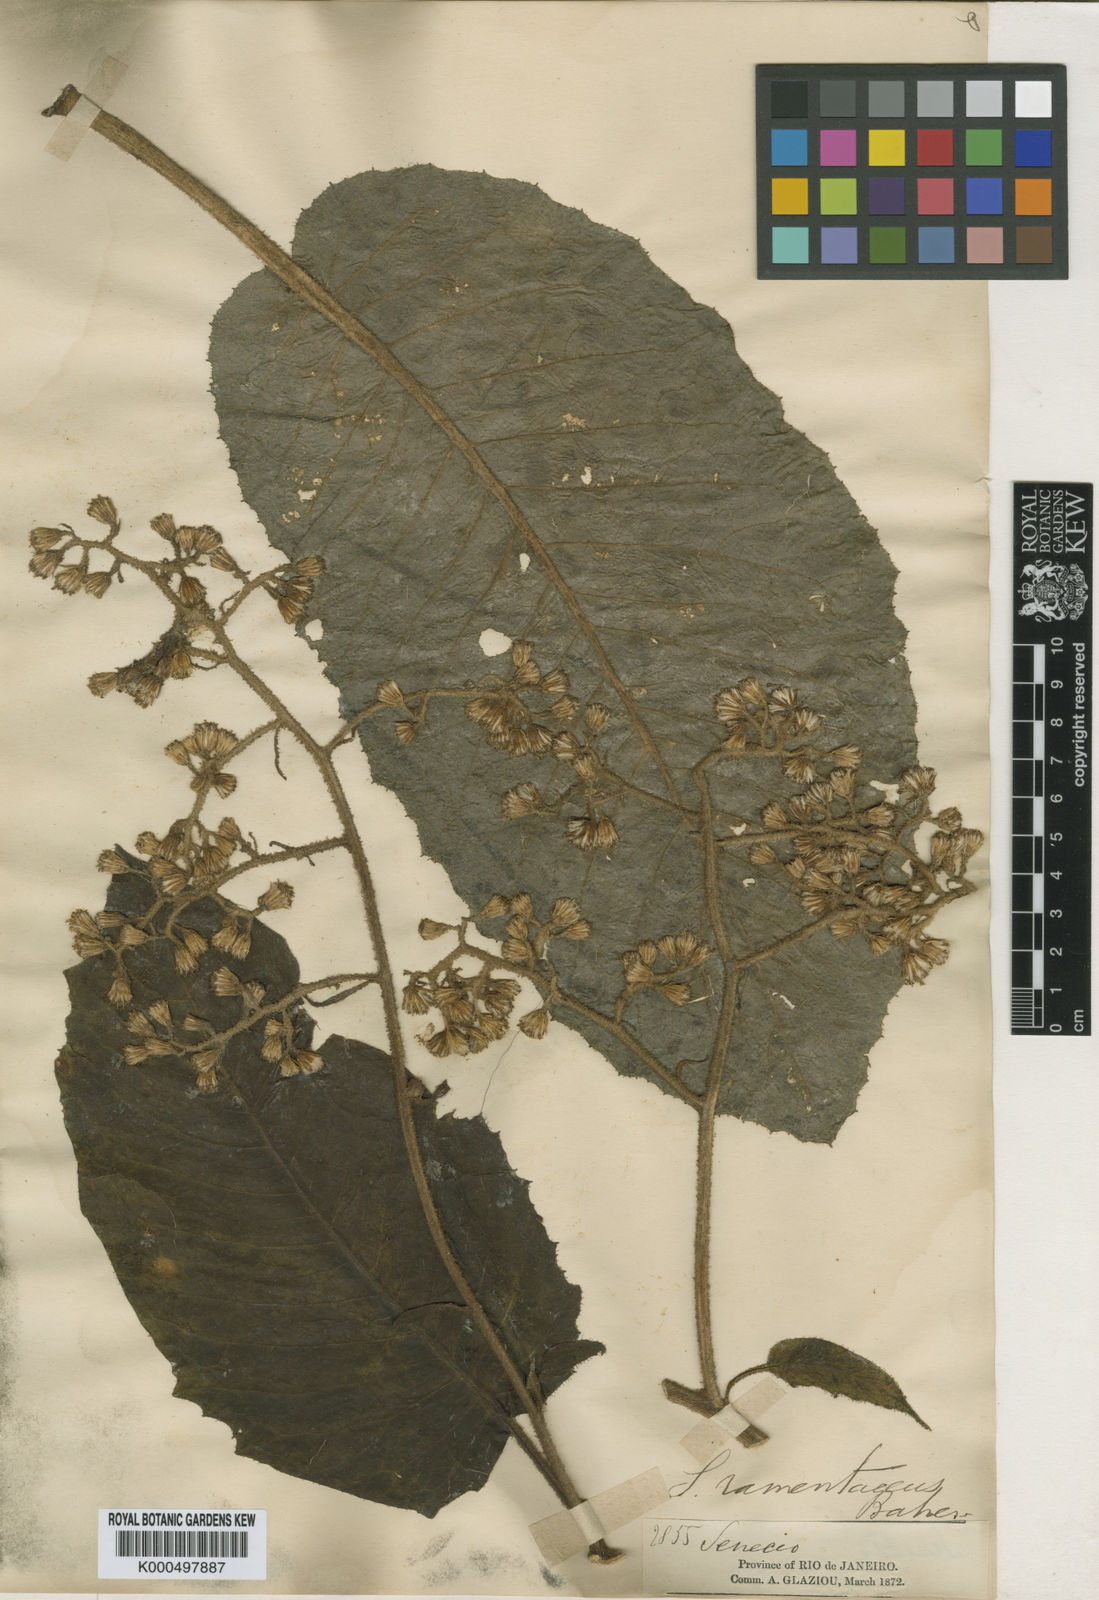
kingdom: Plantae
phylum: Tracheophyta
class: Magnoliopsida
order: Asterales
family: Asteraceae
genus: Senecio
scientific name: Senecio ramentaceus
